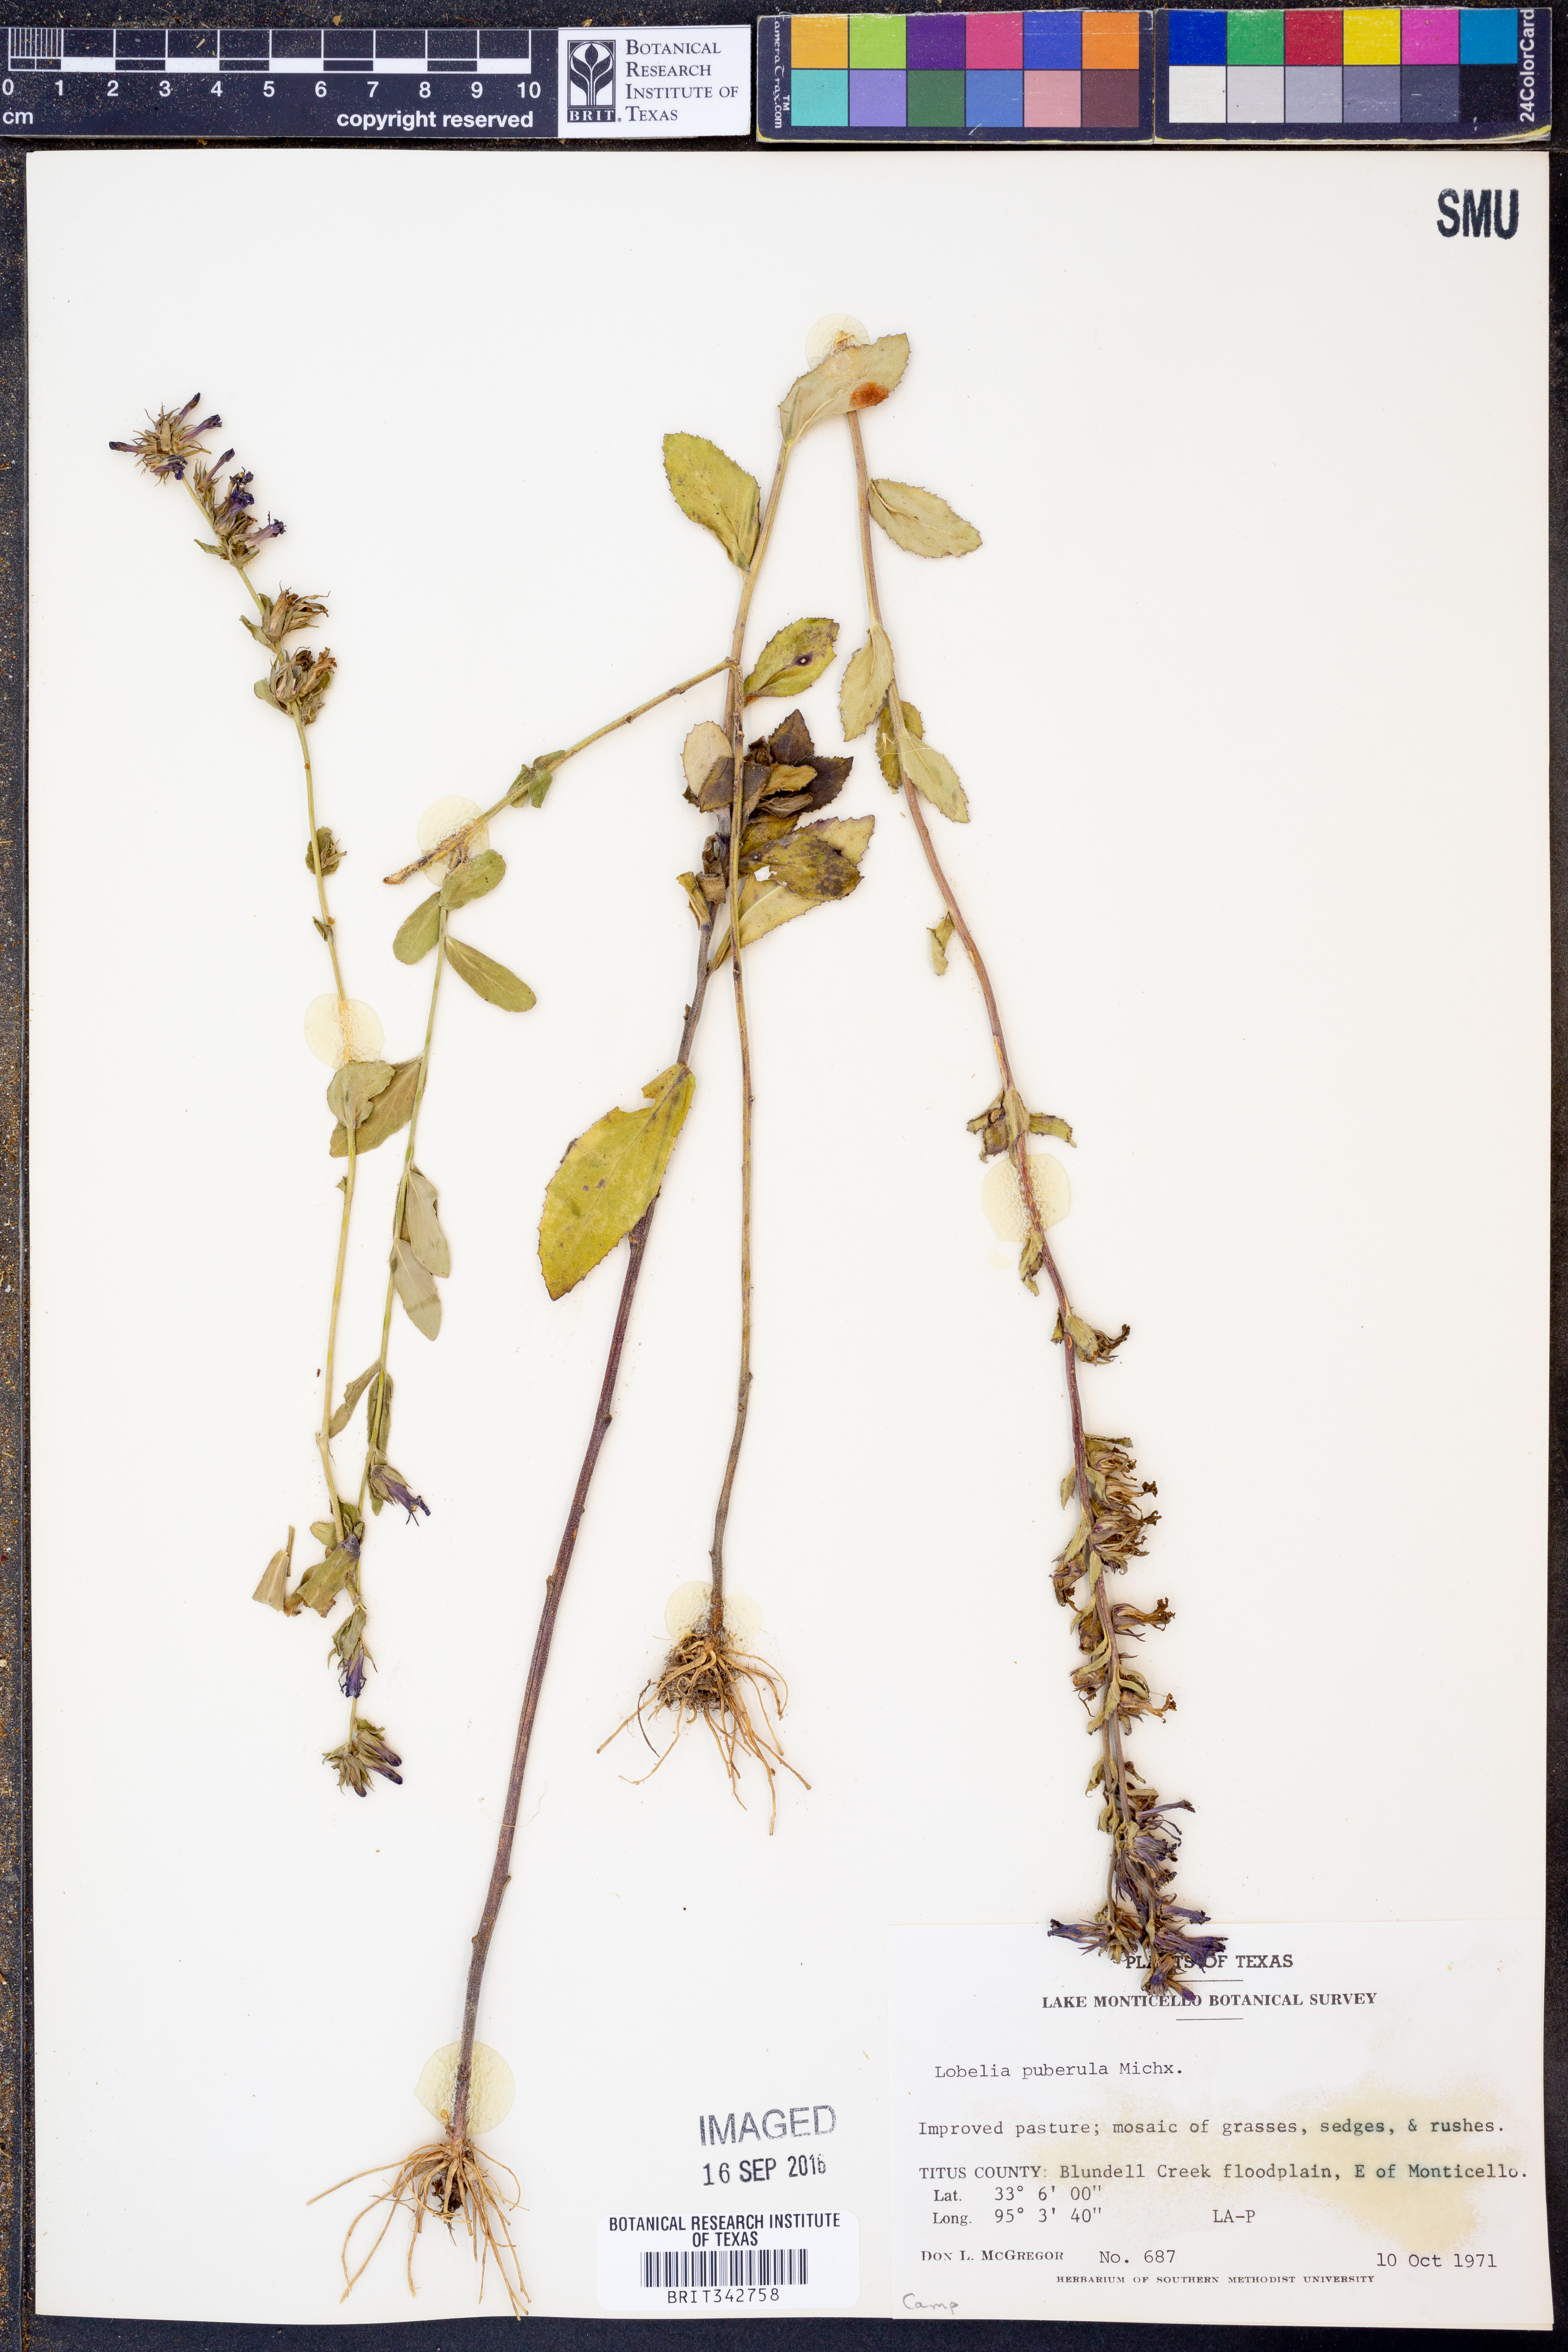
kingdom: Plantae
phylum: Tracheophyta
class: Magnoliopsida
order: Asterales
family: Campanulaceae
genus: Lobelia
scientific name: Lobelia puberula
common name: Purple dewdrop
